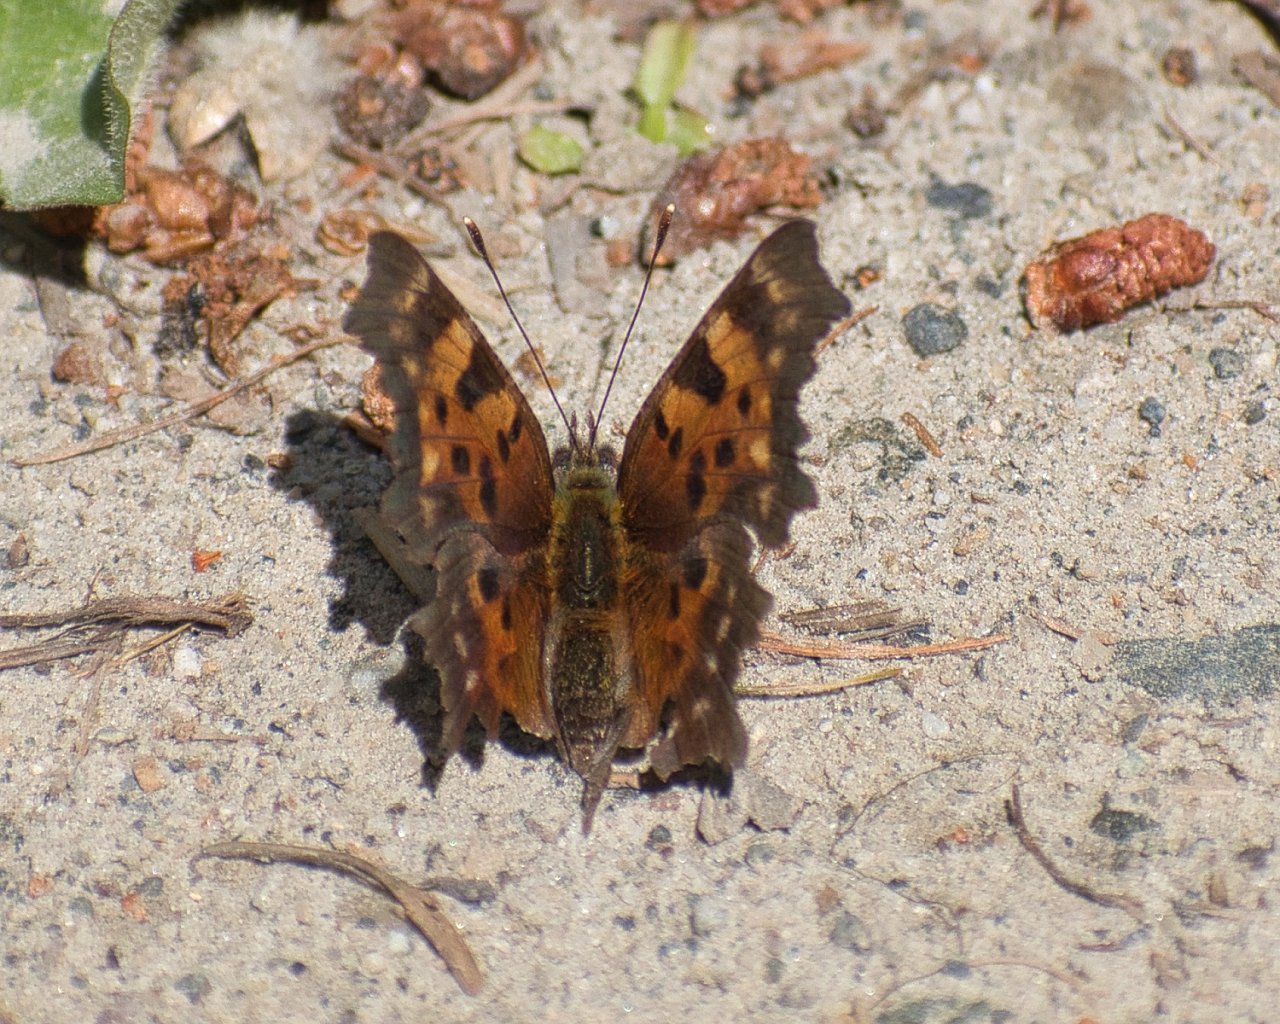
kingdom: Animalia
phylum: Arthropoda
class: Insecta
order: Lepidoptera
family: Nymphalidae
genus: Polygonia
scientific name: Polygonia faunus
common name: Green Comma
